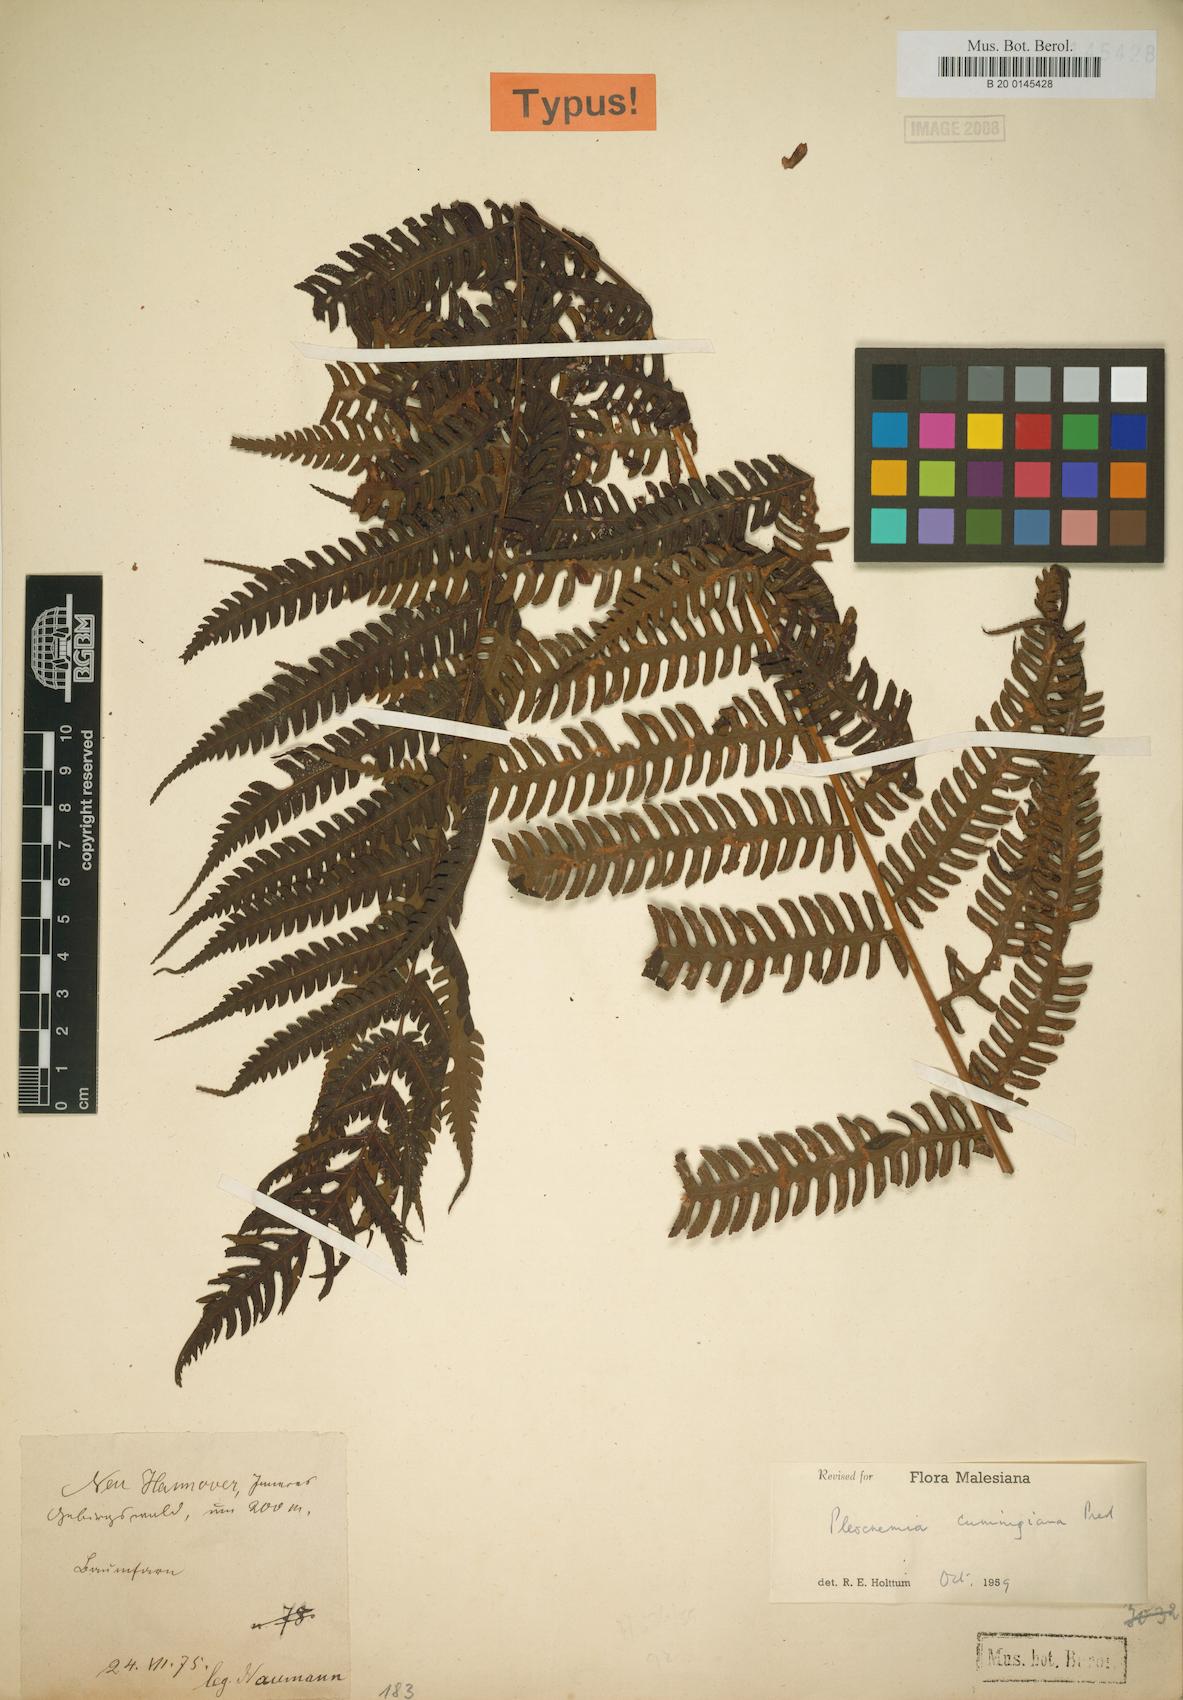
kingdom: Plantae
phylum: Tracheophyta
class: Polypodiopsida
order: Polypodiales
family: Dryopteridaceae
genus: Pleocnemia
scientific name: Pleocnemia cumingiana
